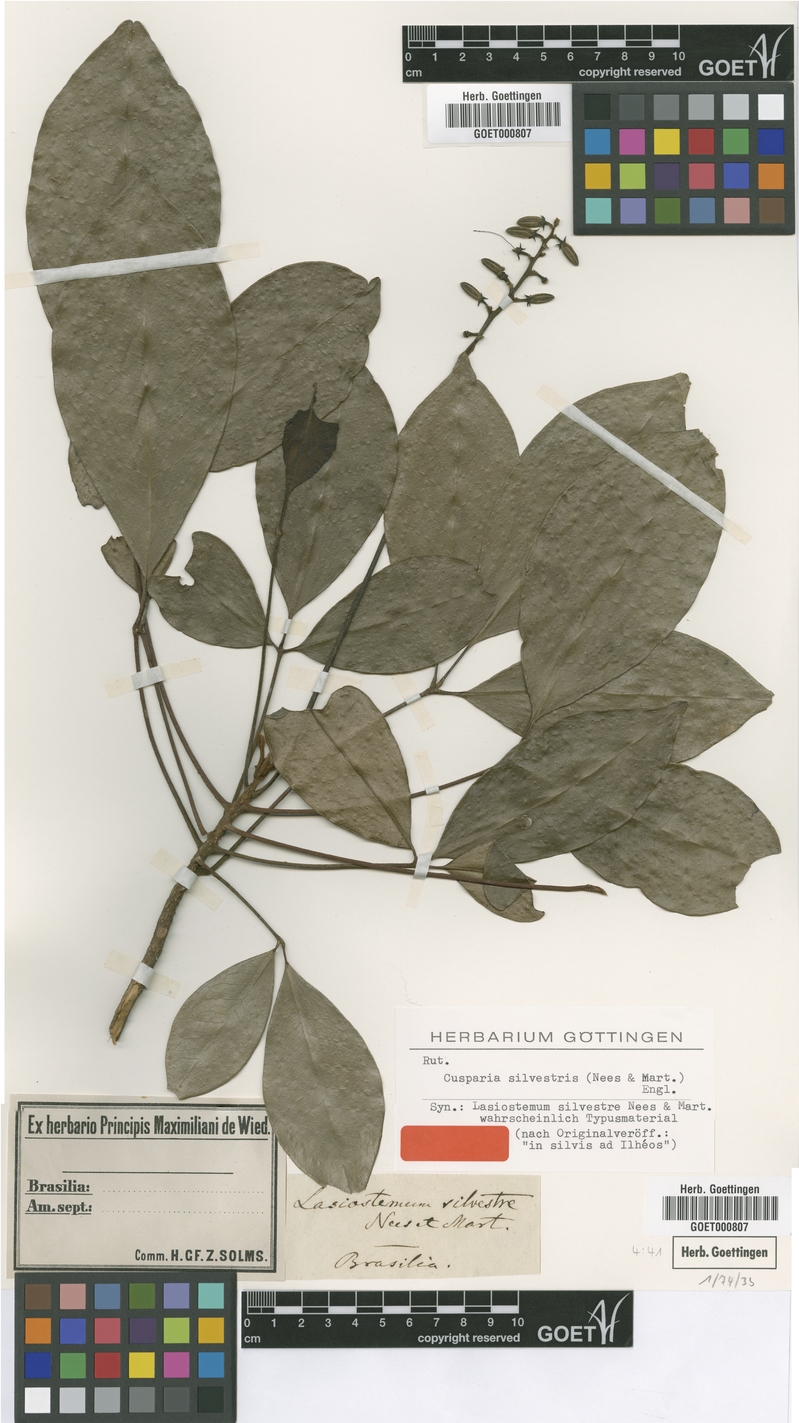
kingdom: Plantae
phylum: Tracheophyta
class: Magnoliopsida
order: Sapindales
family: Rutaceae
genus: Conchocarpus
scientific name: Conchocarpus silvestris
